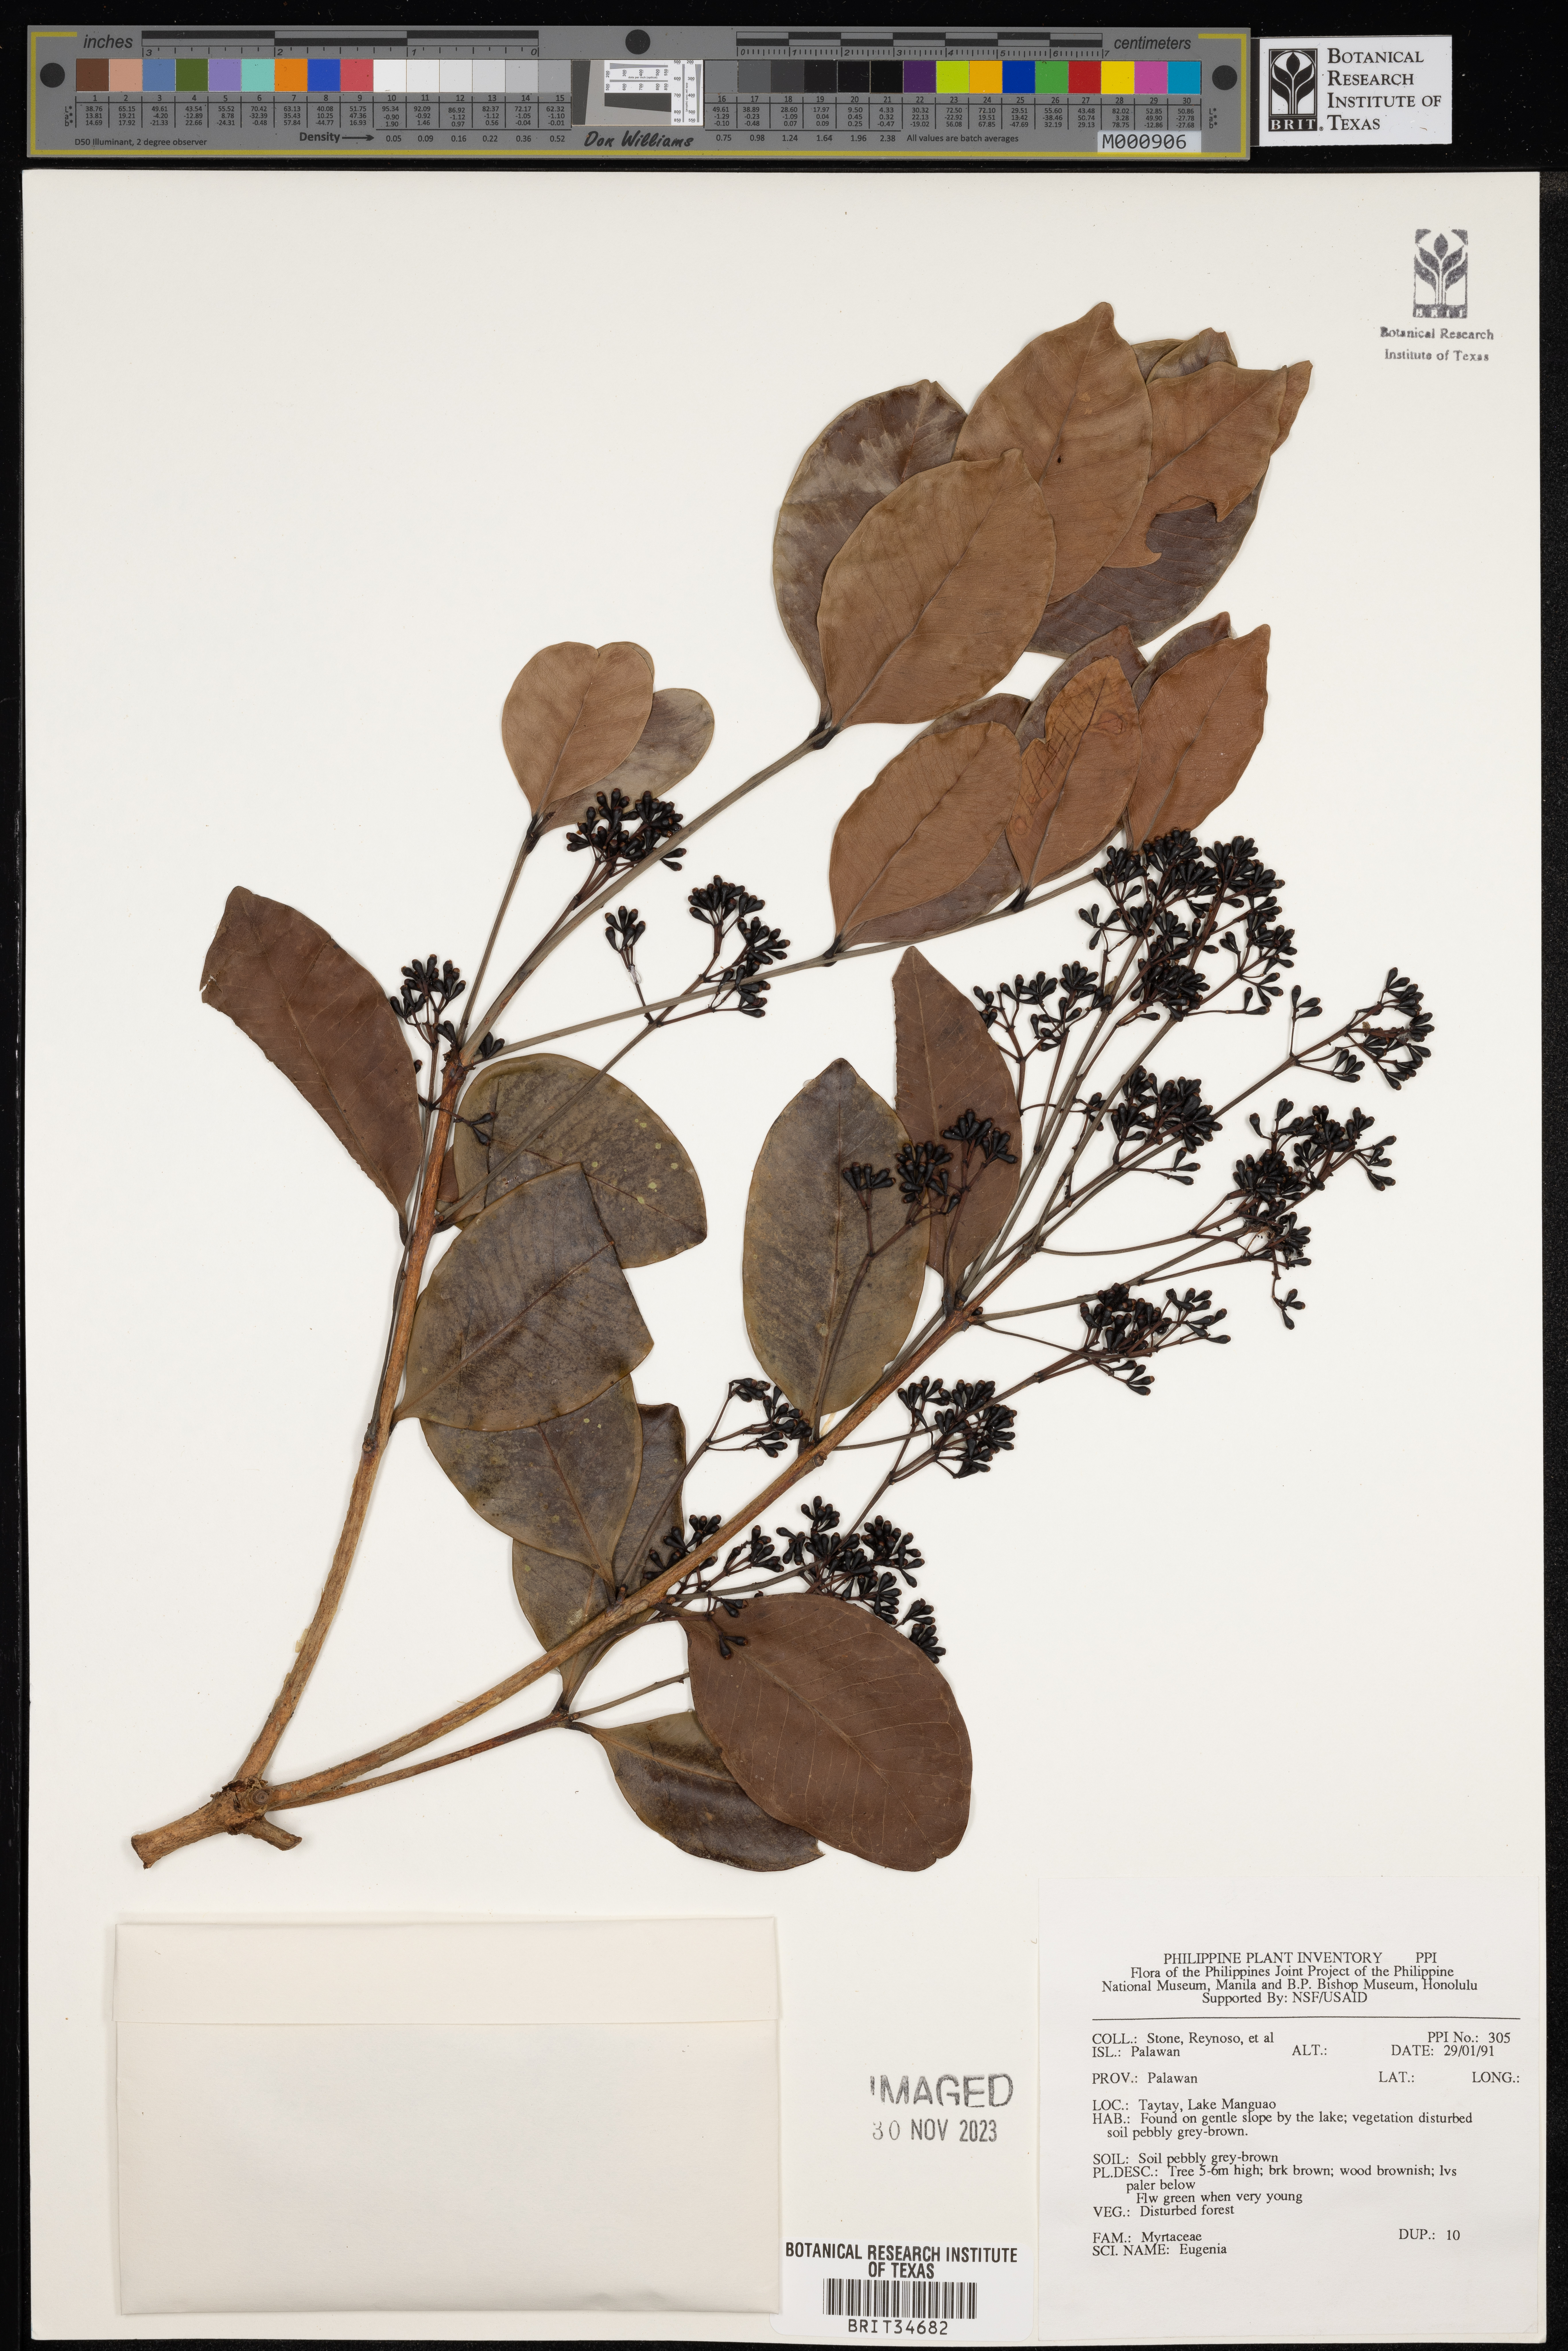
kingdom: Plantae
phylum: Tracheophyta
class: Magnoliopsida
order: Myrtales
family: Myrtaceae
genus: Eugenia
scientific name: Eugenia
